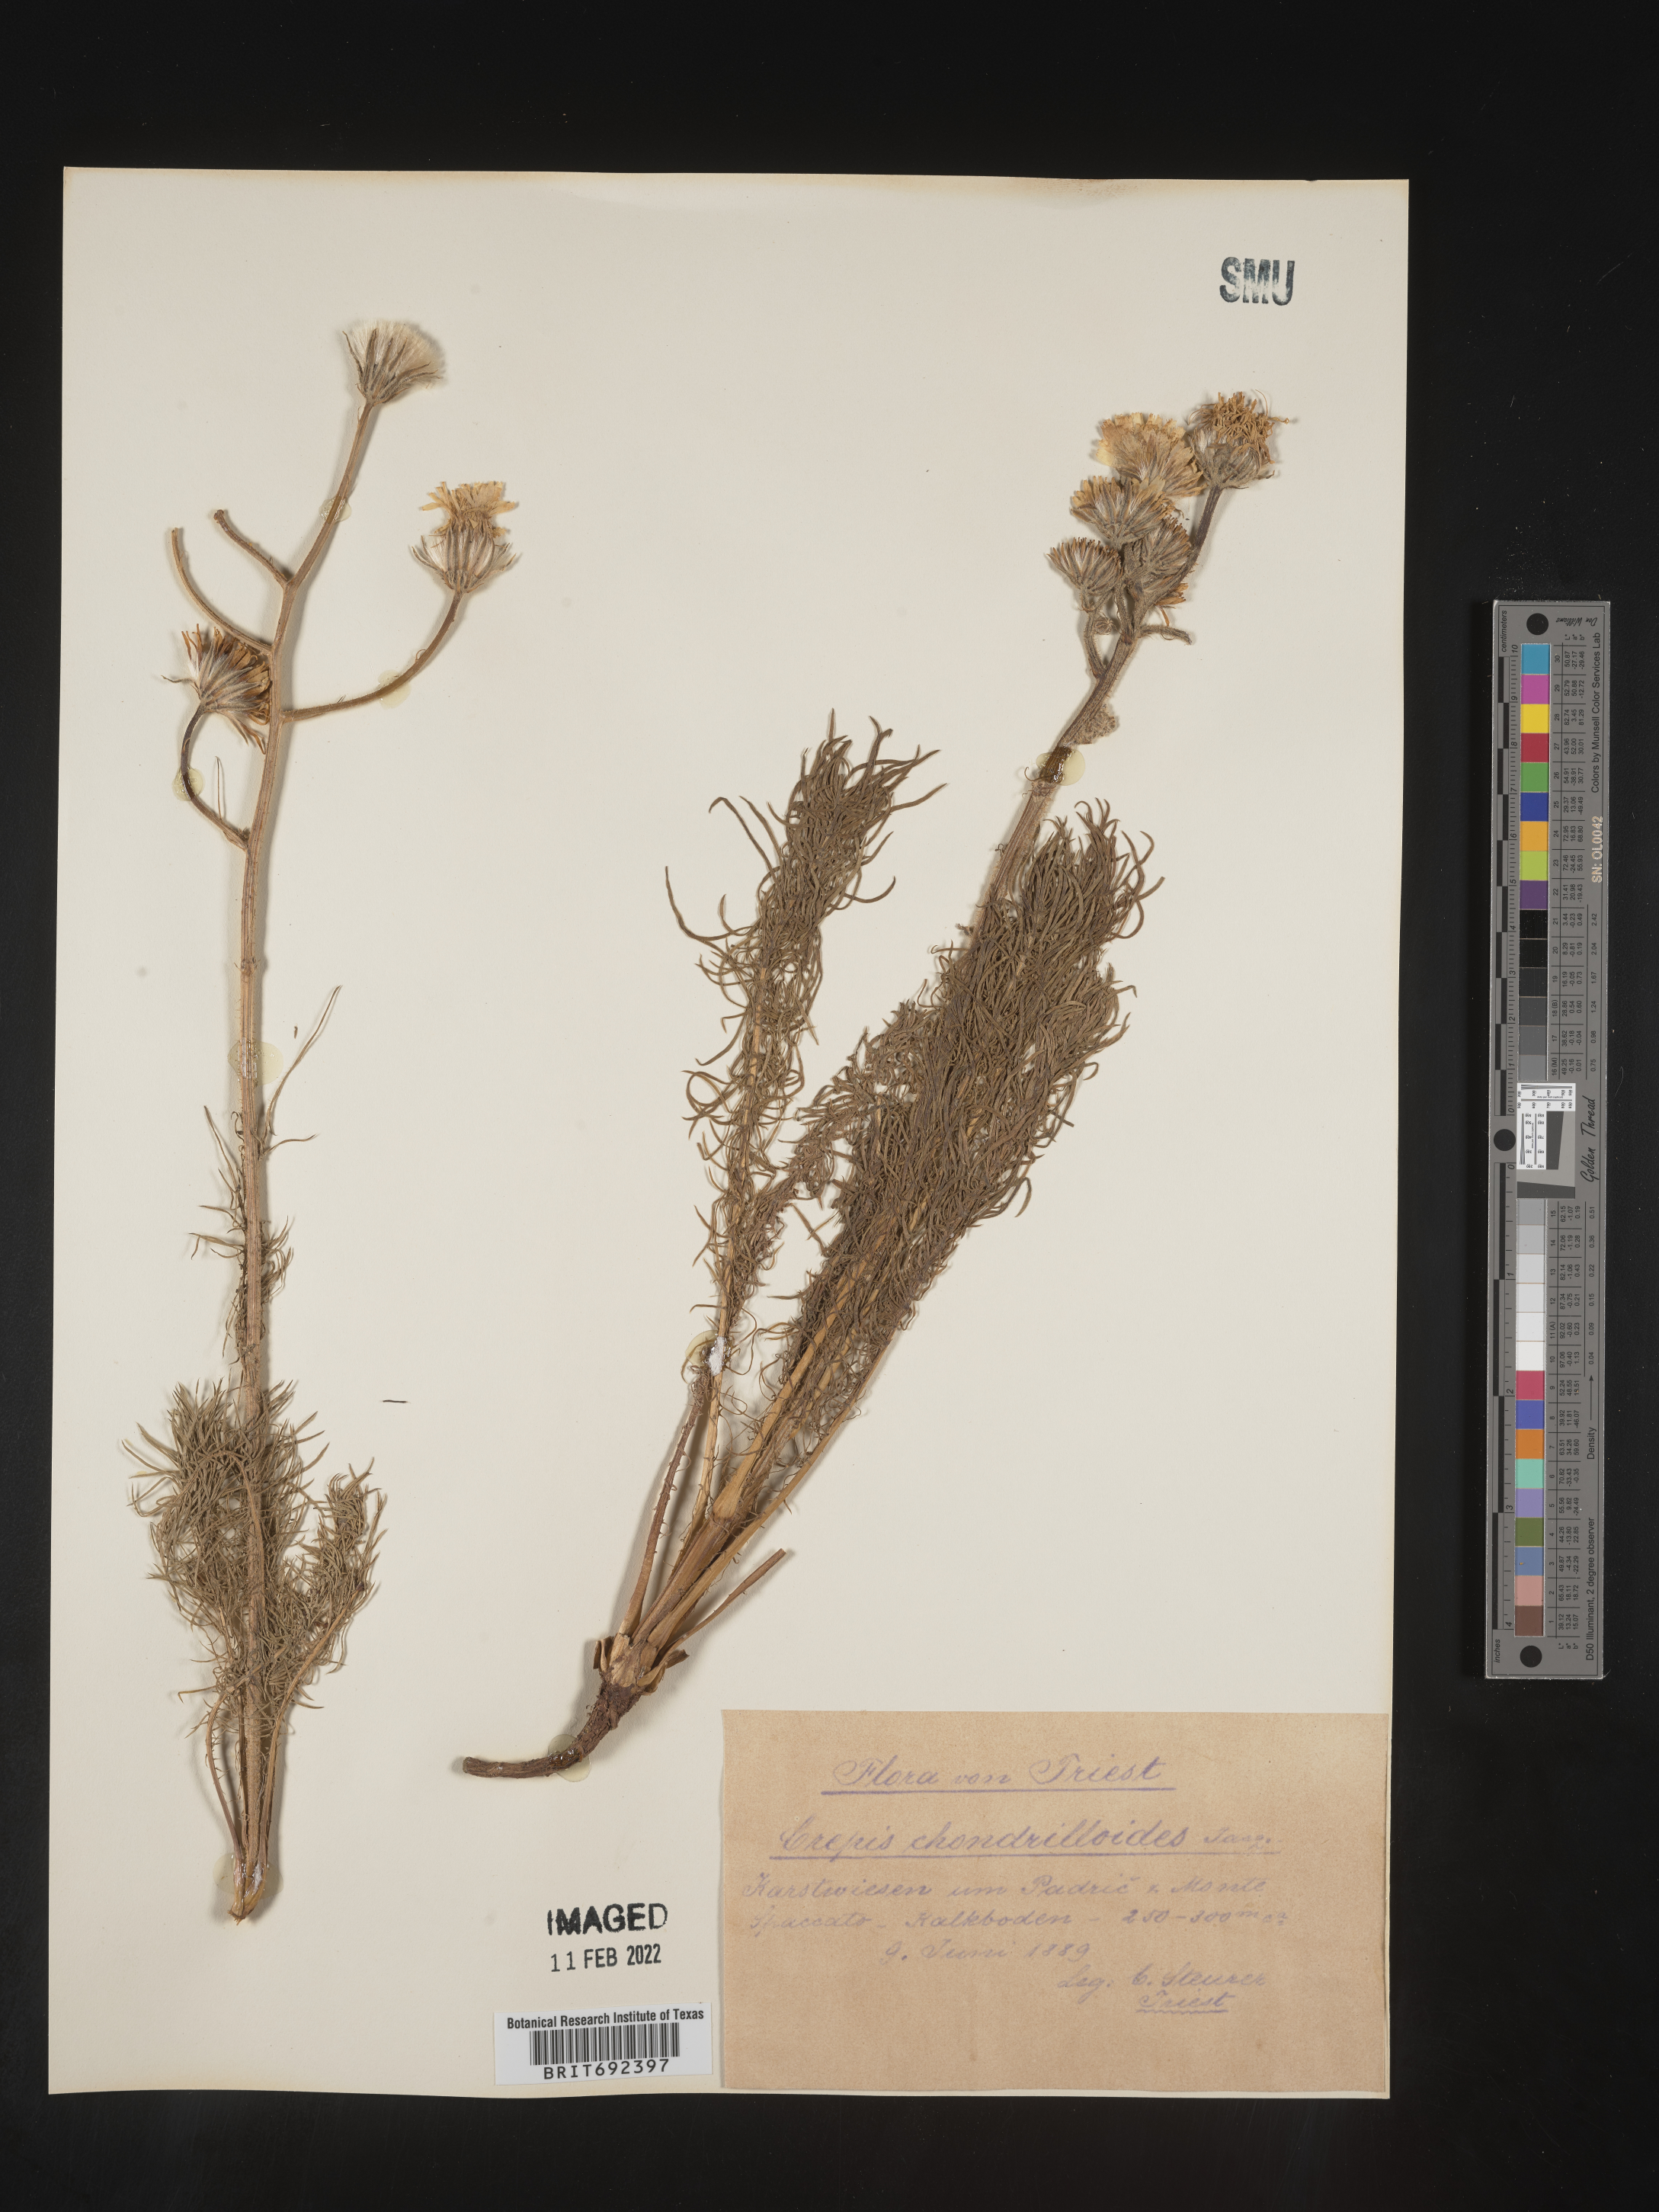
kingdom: Plantae
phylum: Tracheophyta
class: Magnoliopsida
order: Asterales
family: Asteraceae
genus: Crepis
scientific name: Crepis
